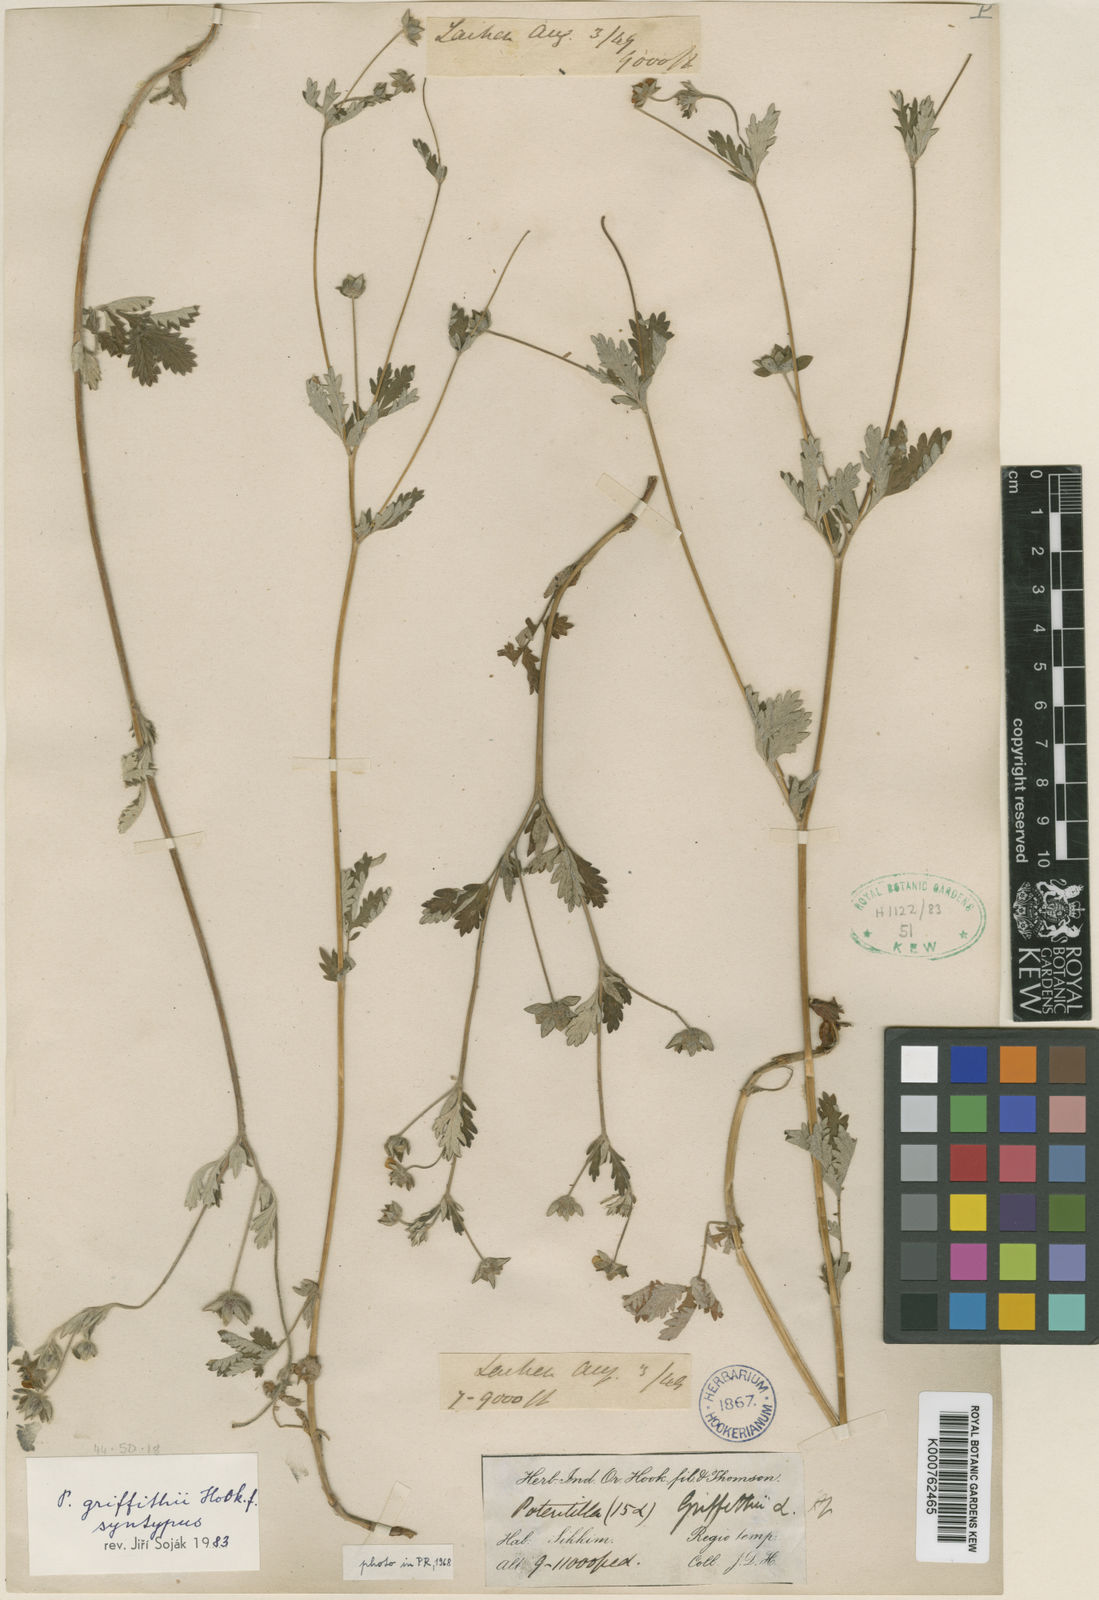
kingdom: Plantae
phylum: Tracheophyta
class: Magnoliopsida
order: Rosales
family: Rosaceae
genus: Potentilla
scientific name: Potentilla griffithii
